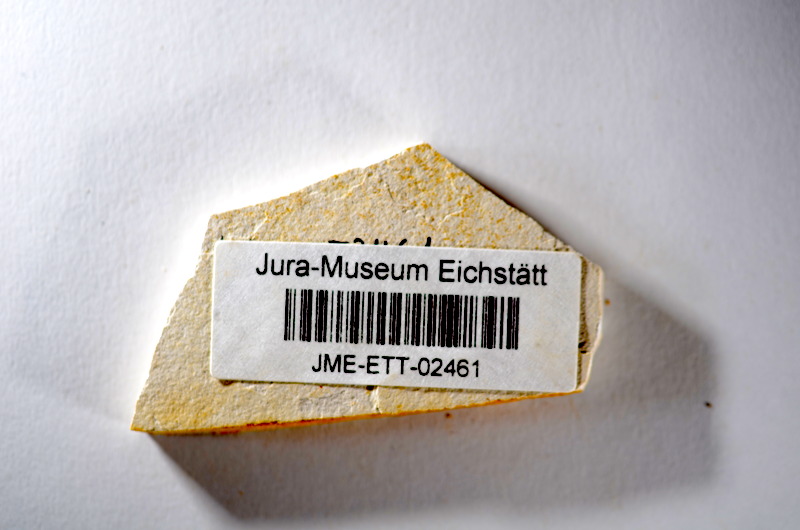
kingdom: Animalia
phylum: Chordata
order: Salmoniformes
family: Orthogonikleithridae
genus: Orthogonikleithrus
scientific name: Orthogonikleithrus hoelli
